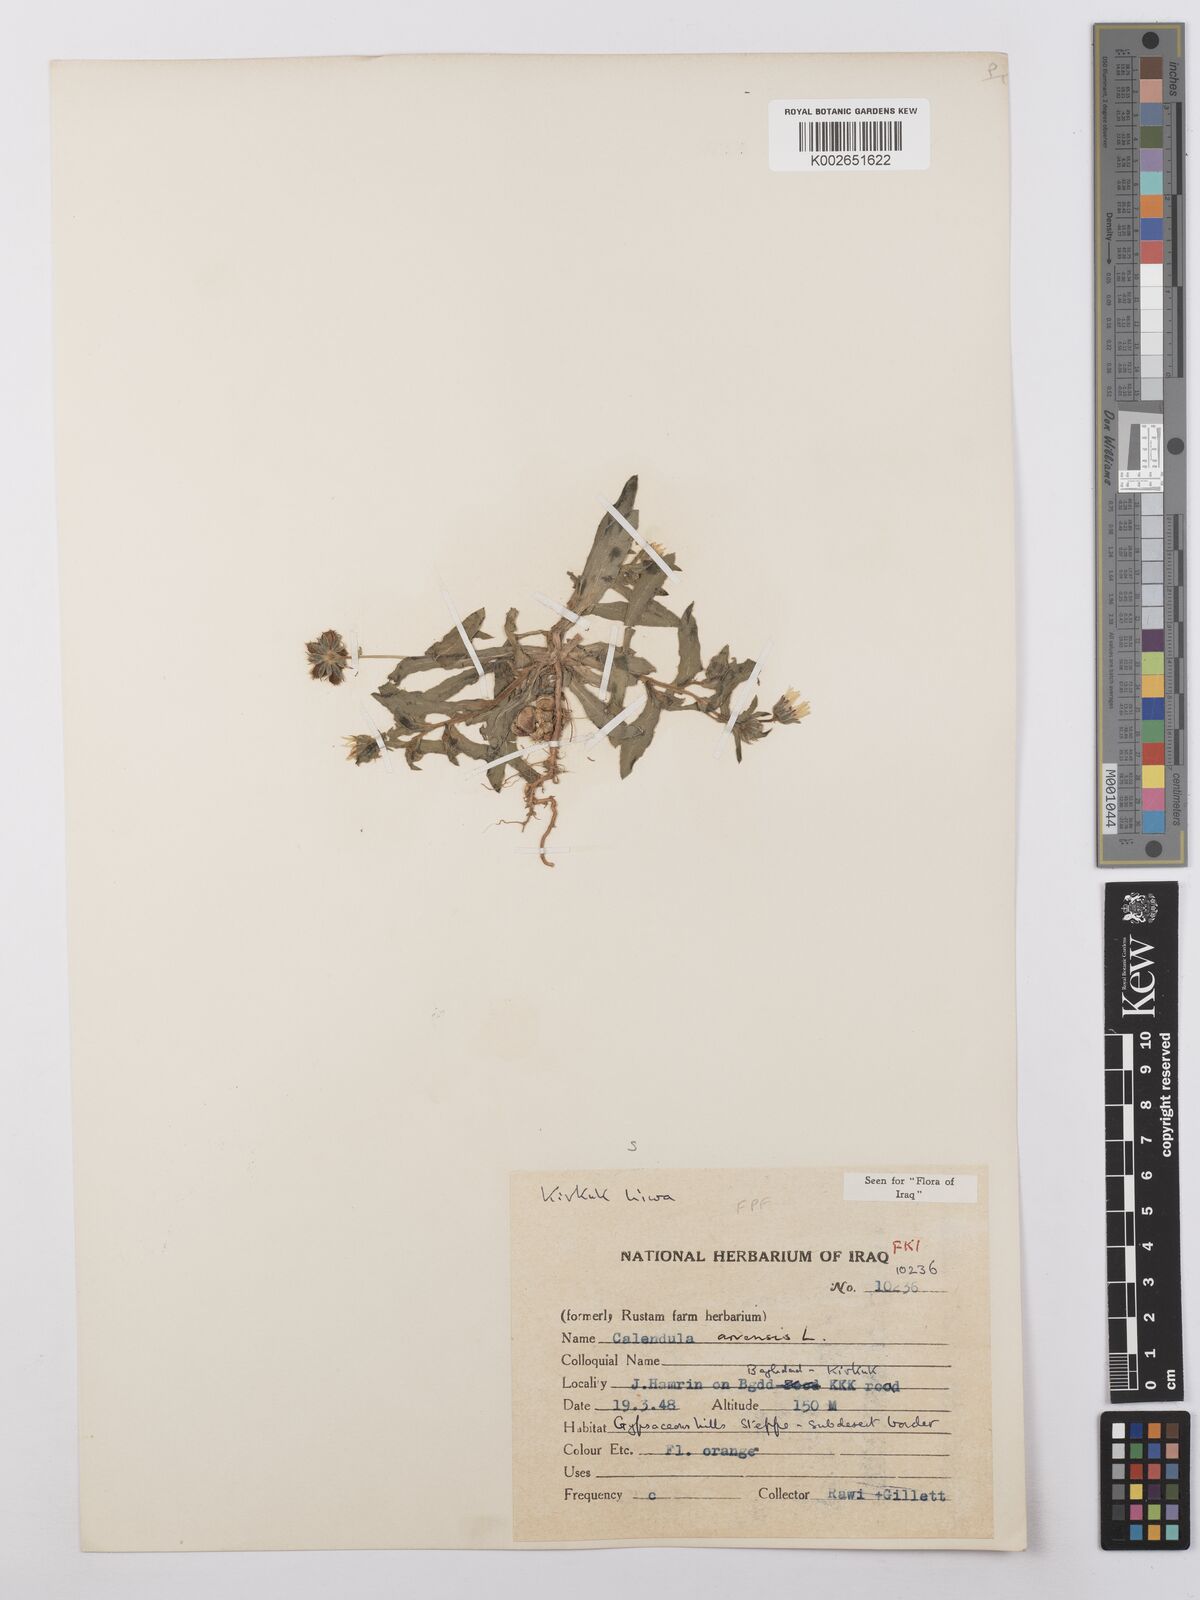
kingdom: Plantae
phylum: Tracheophyta
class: Magnoliopsida
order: Asterales
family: Asteraceae
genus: Calendula
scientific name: Calendula arvensis
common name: Field marigold
